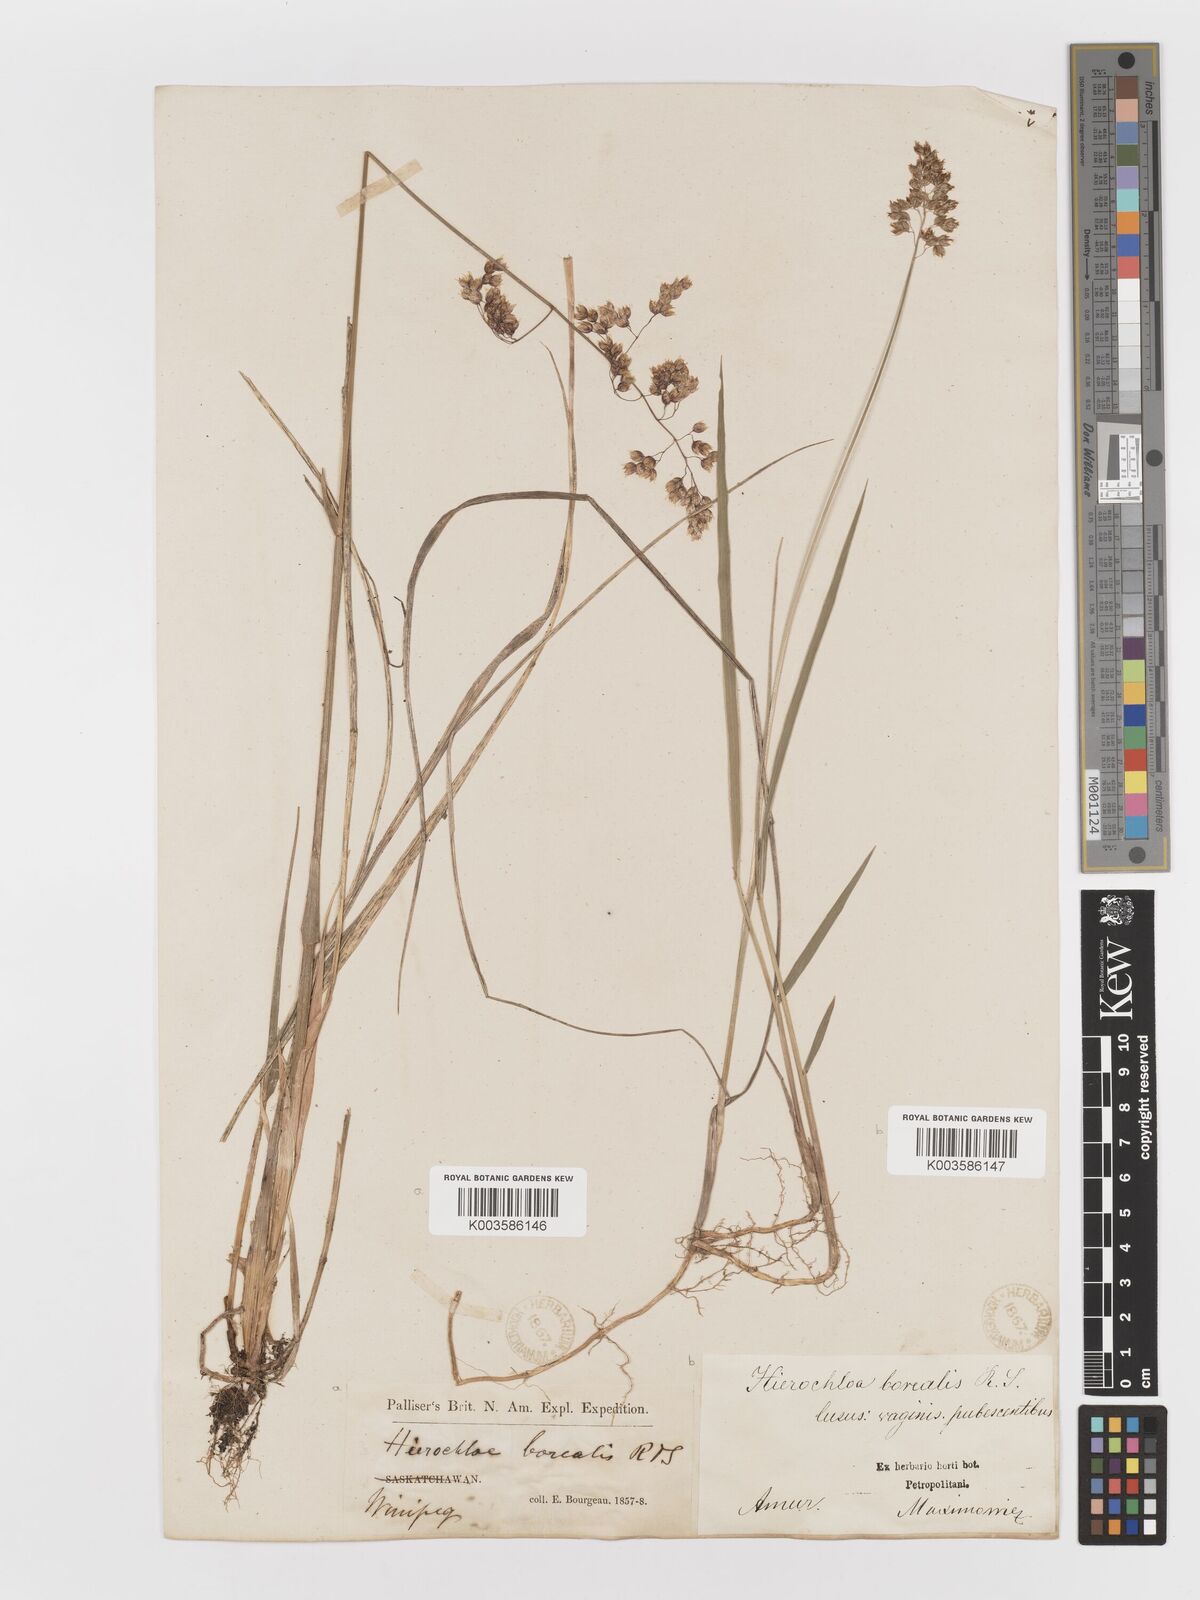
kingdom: Plantae
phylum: Tracheophyta
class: Liliopsida
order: Poales
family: Poaceae
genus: Anthoxanthum
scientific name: Anthoxanthum nitens
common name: Holy grass
